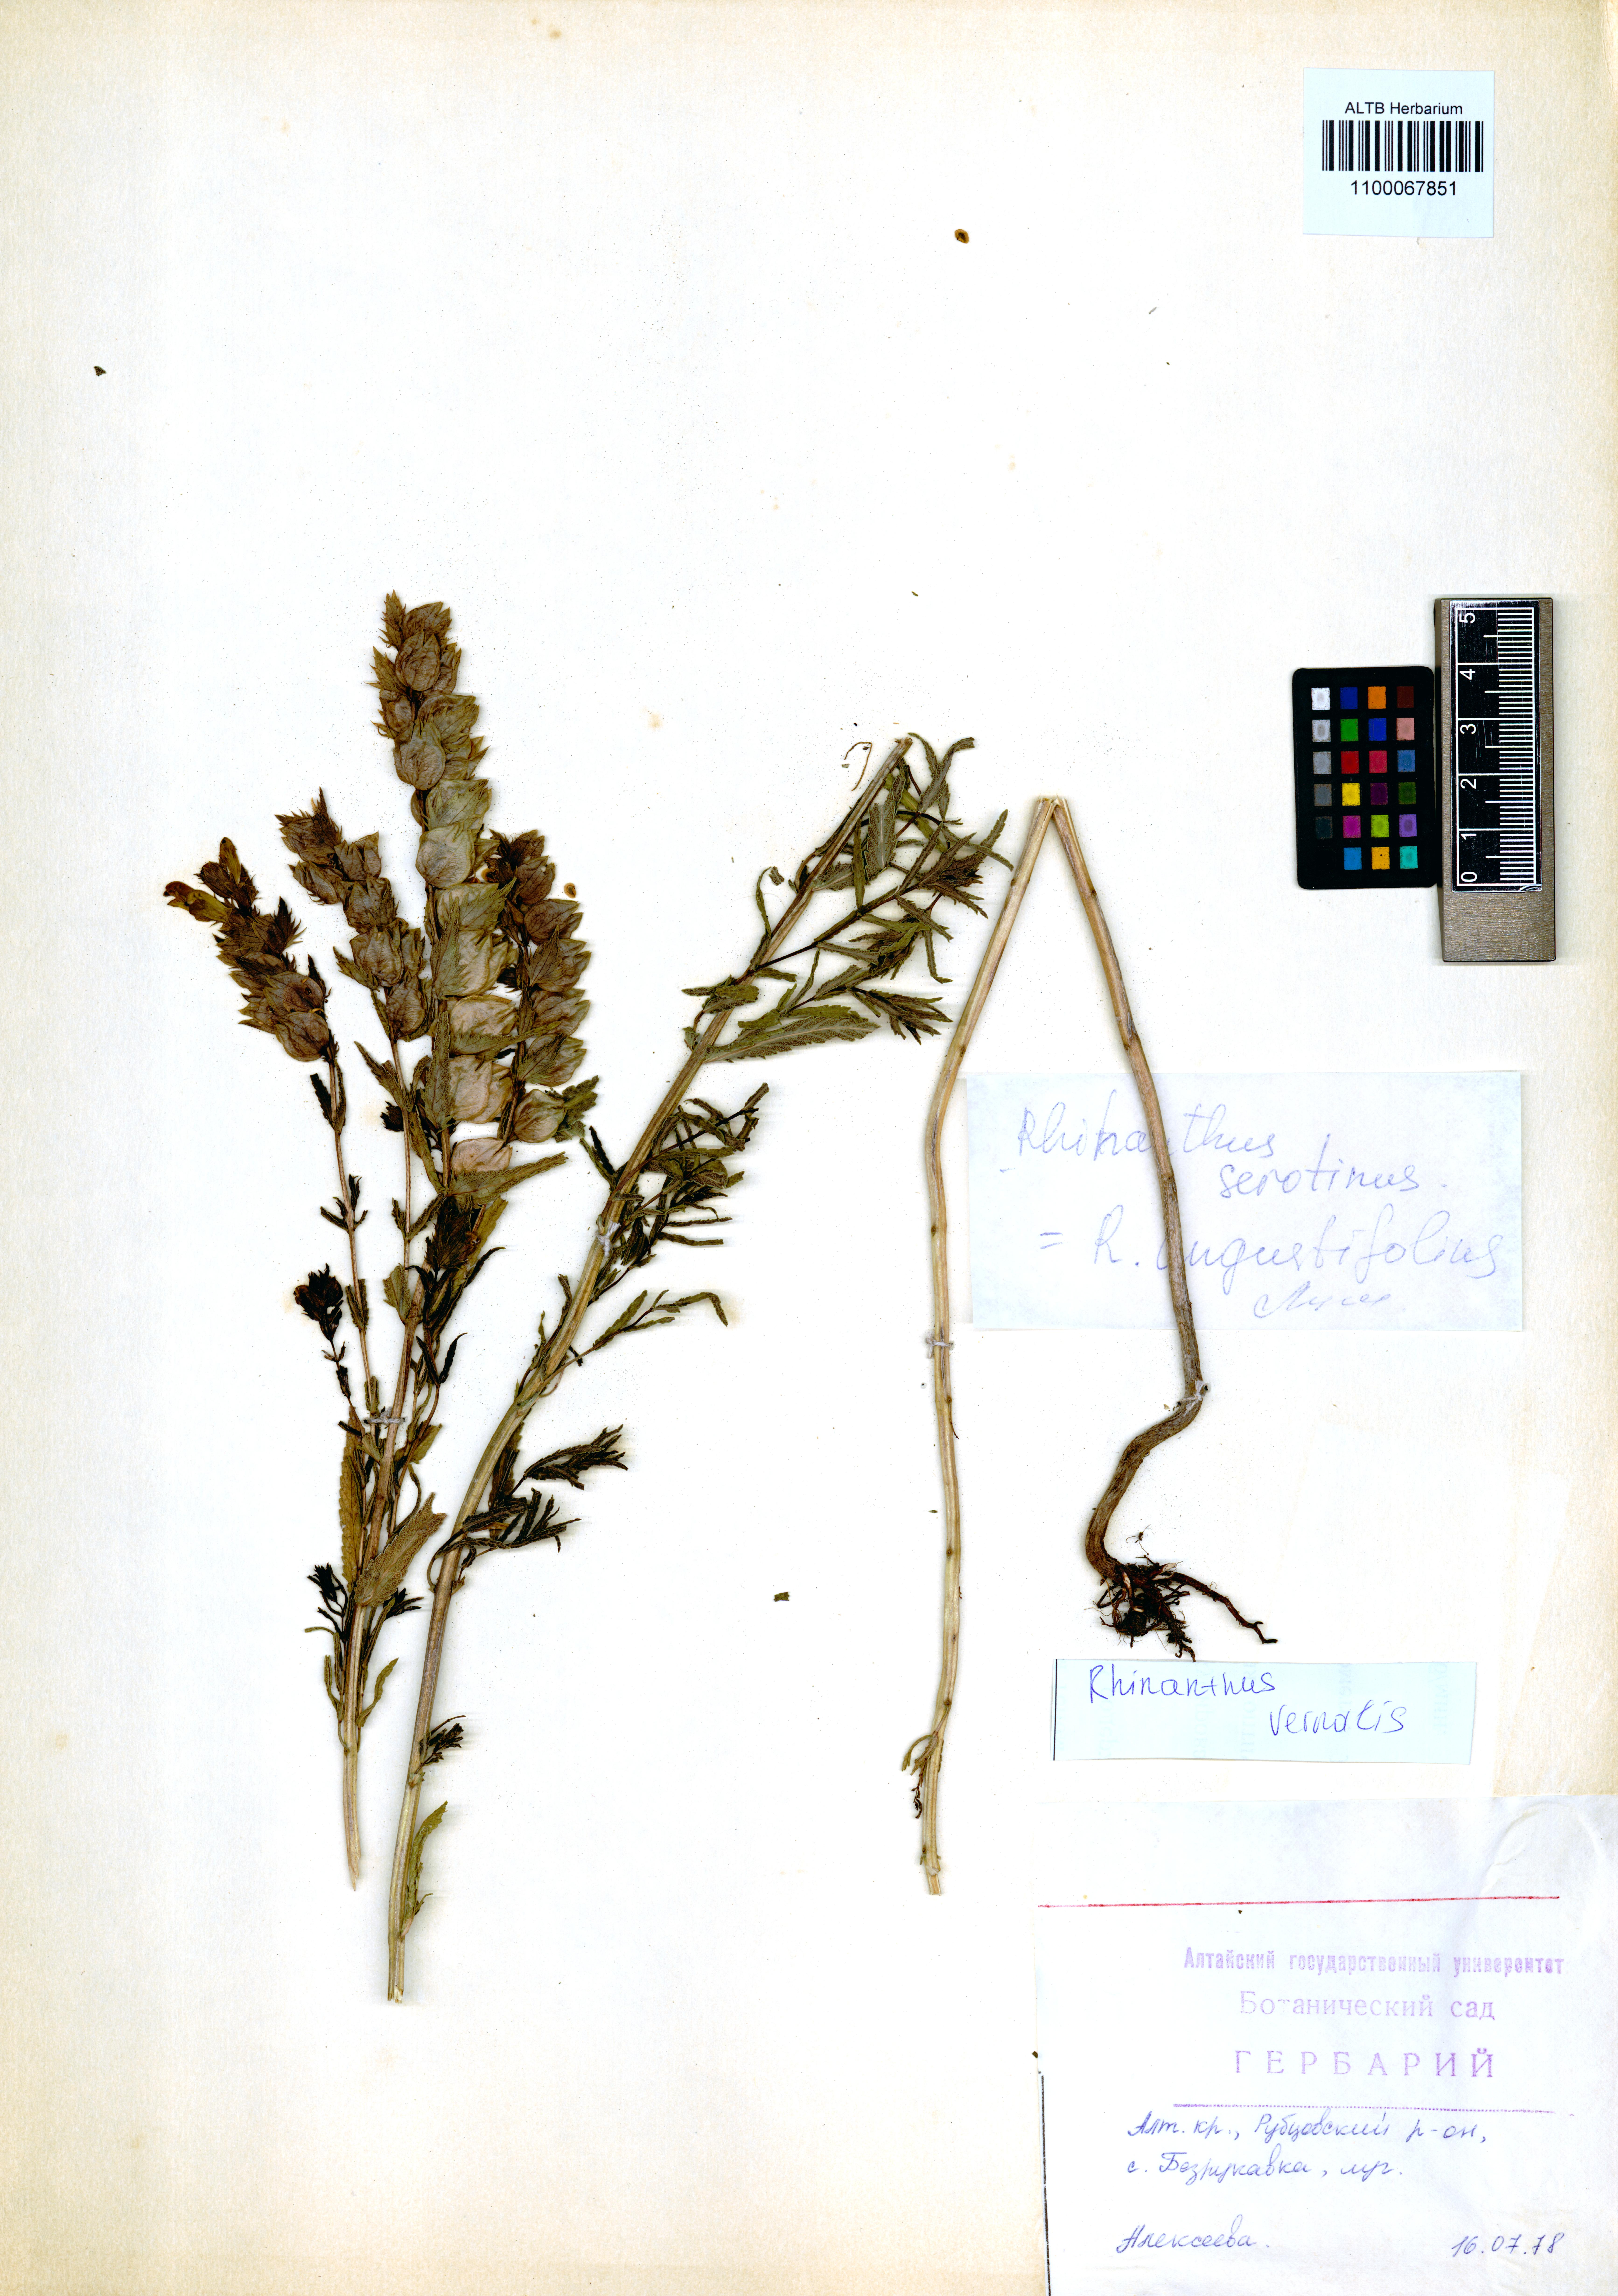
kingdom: Plantae
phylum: Tracheophyta
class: Magnoliopsida
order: Lamiales
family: Orobanchaceae
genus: Rhinanthus
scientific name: Rhinanthus serotinus
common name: Late-flowering yellow rattle
